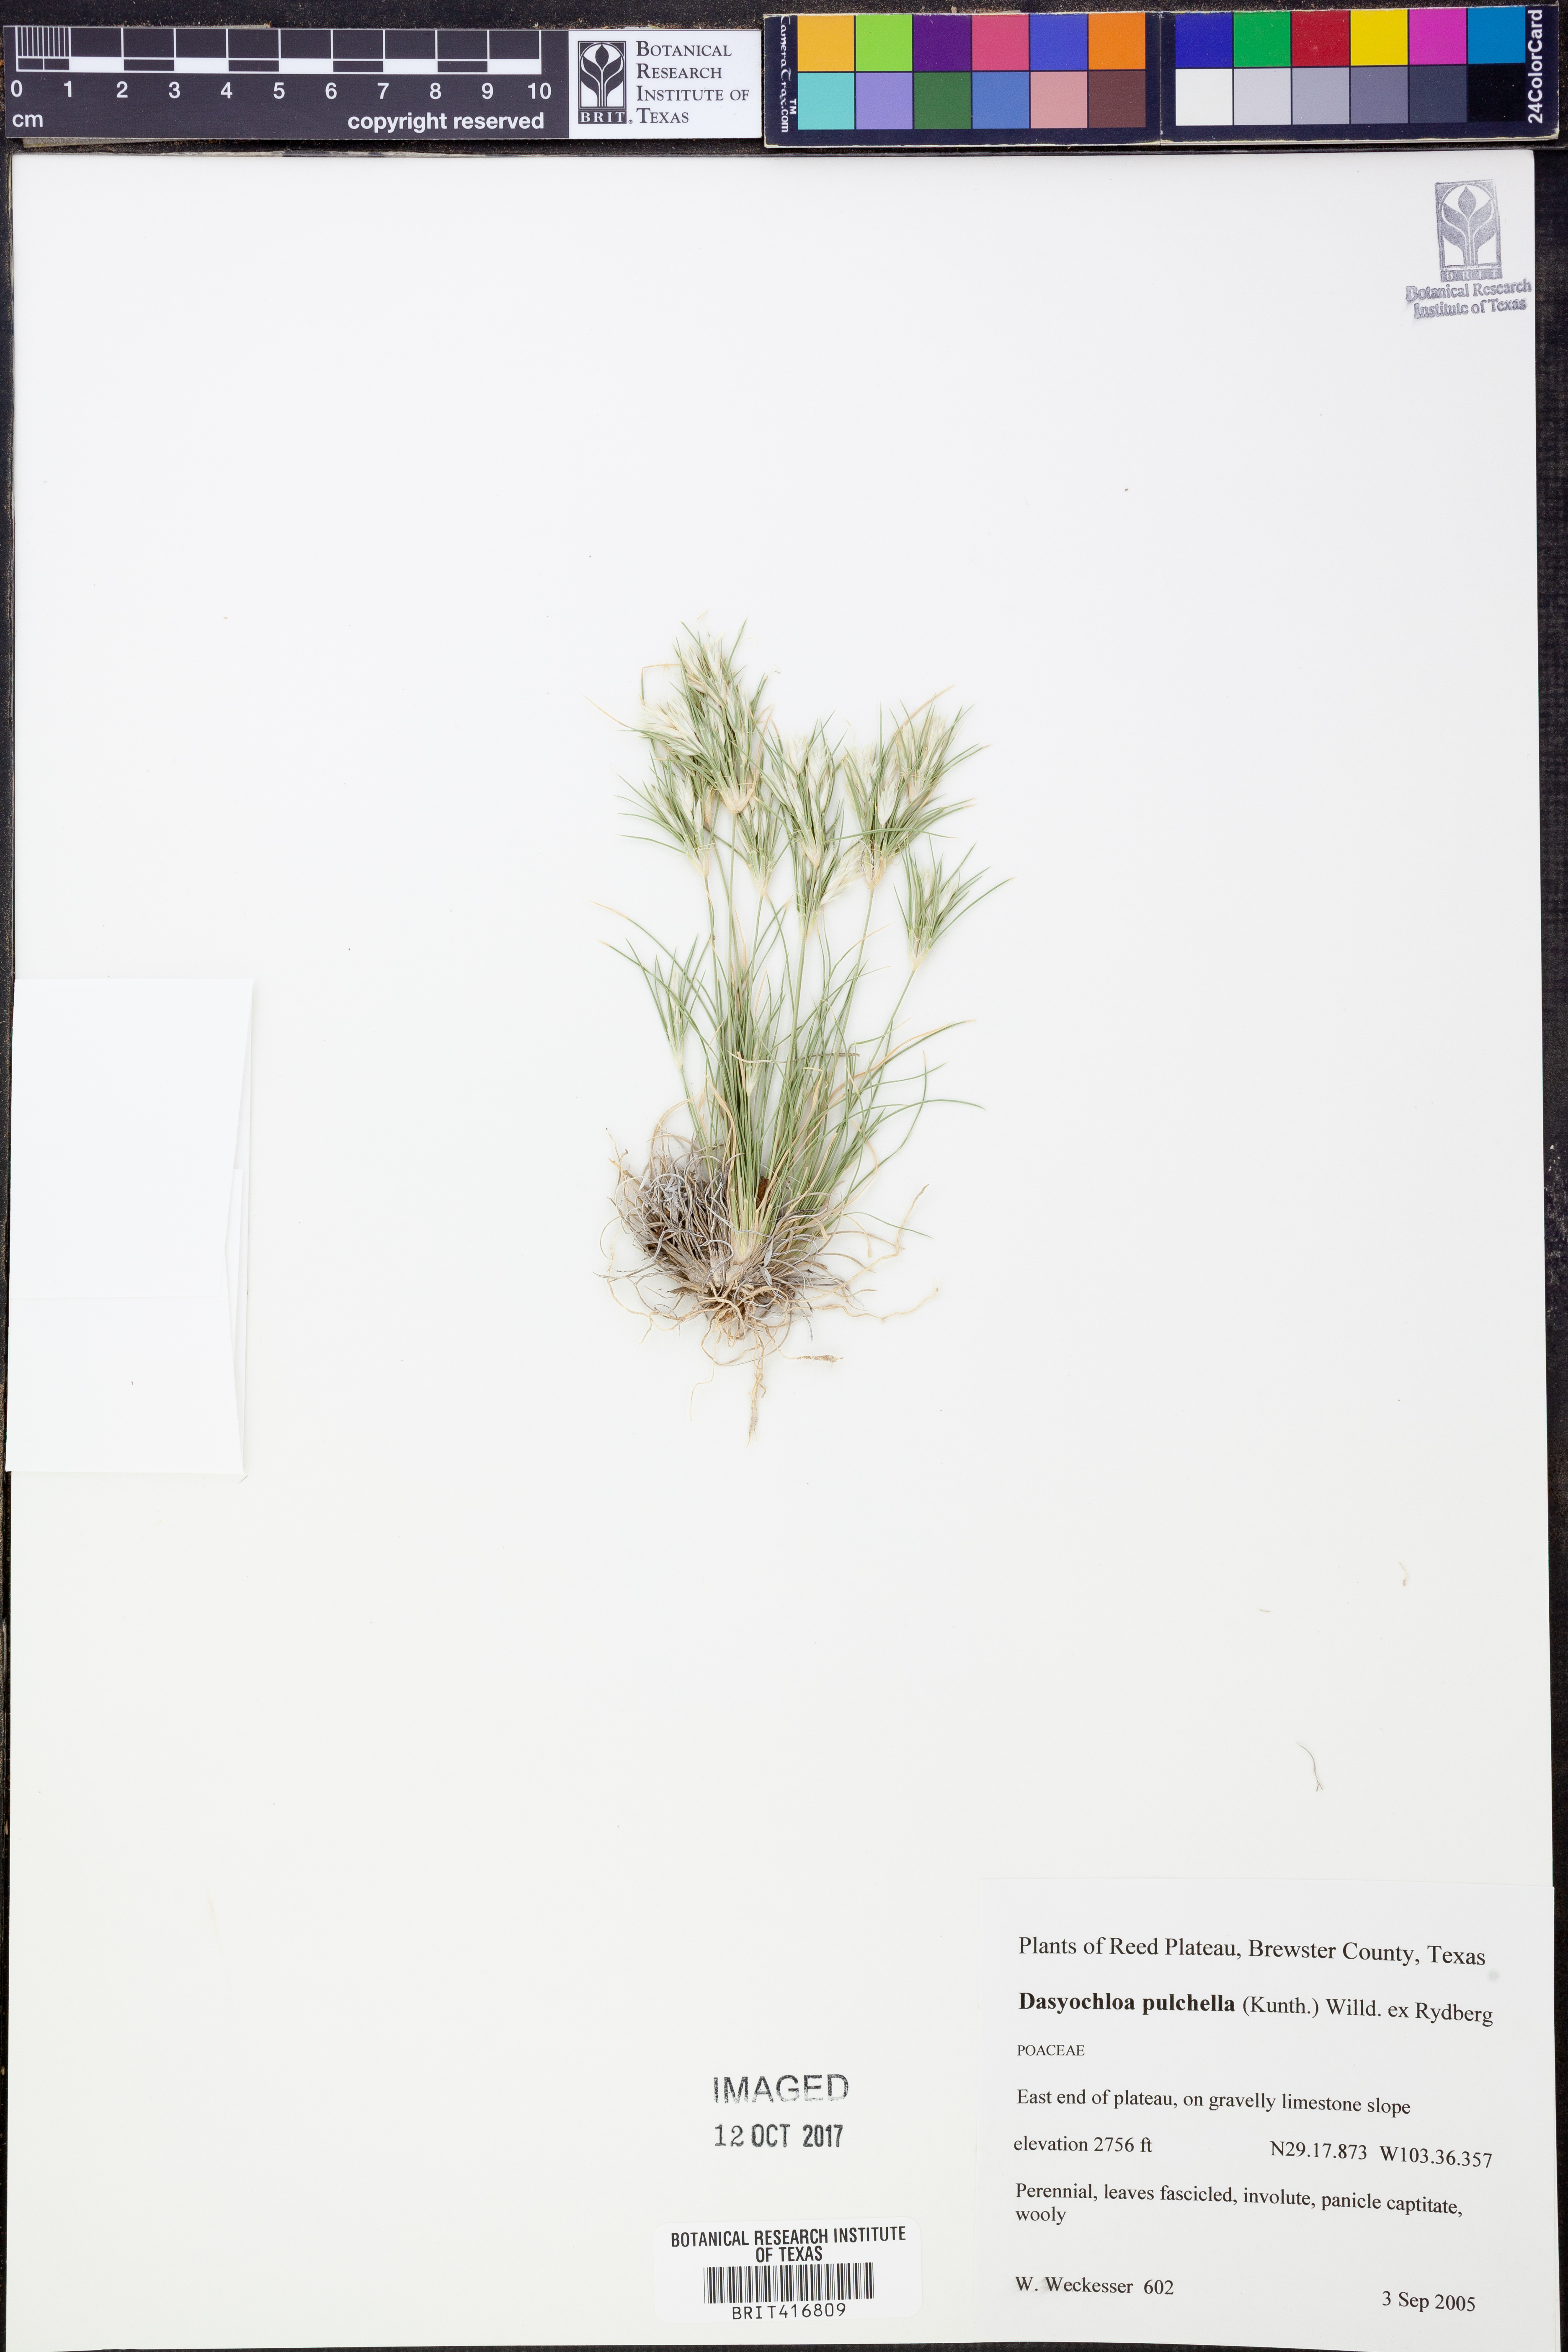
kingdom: Plantae
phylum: Tracheophyta
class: Liliopsida
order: Poales
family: Poaceae
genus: Munroa
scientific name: Munroa pulchella
